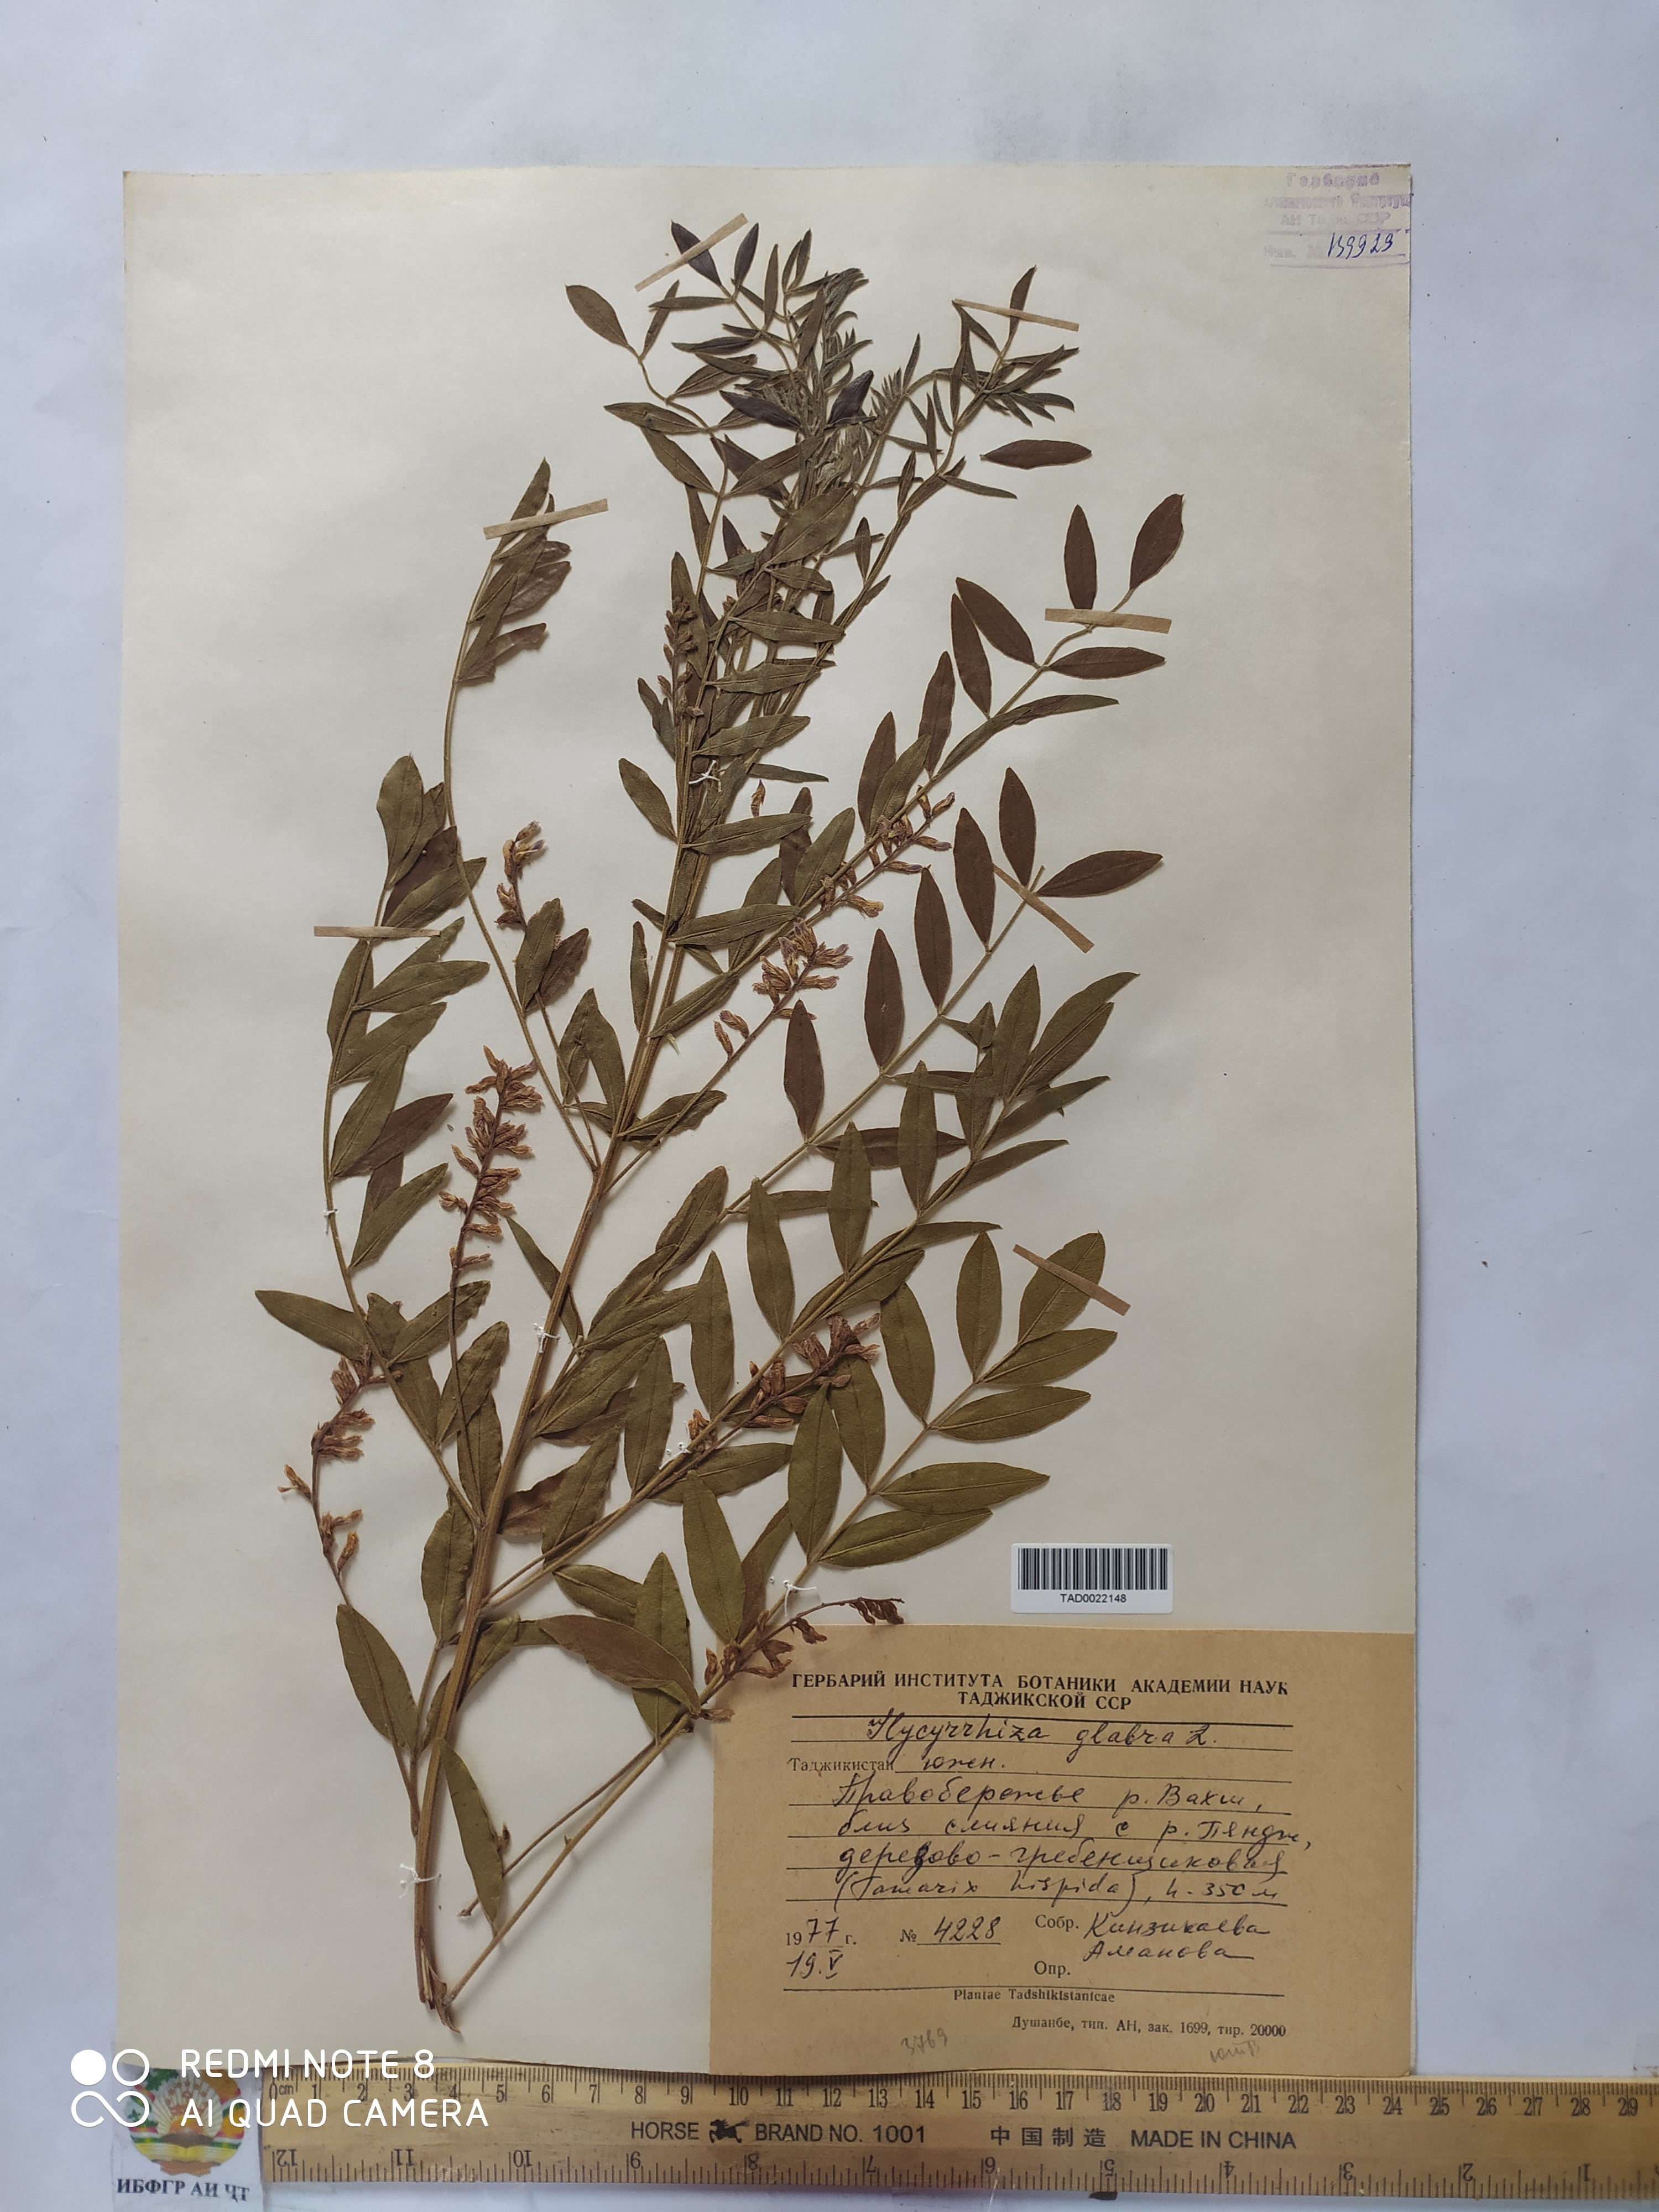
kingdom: Plantae
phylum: Tracheophyta
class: Magnoliopsida
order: Fabales
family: Fabaceae
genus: Glycyrrhiza
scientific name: Glycyrrhiza glabra
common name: Liquorice
